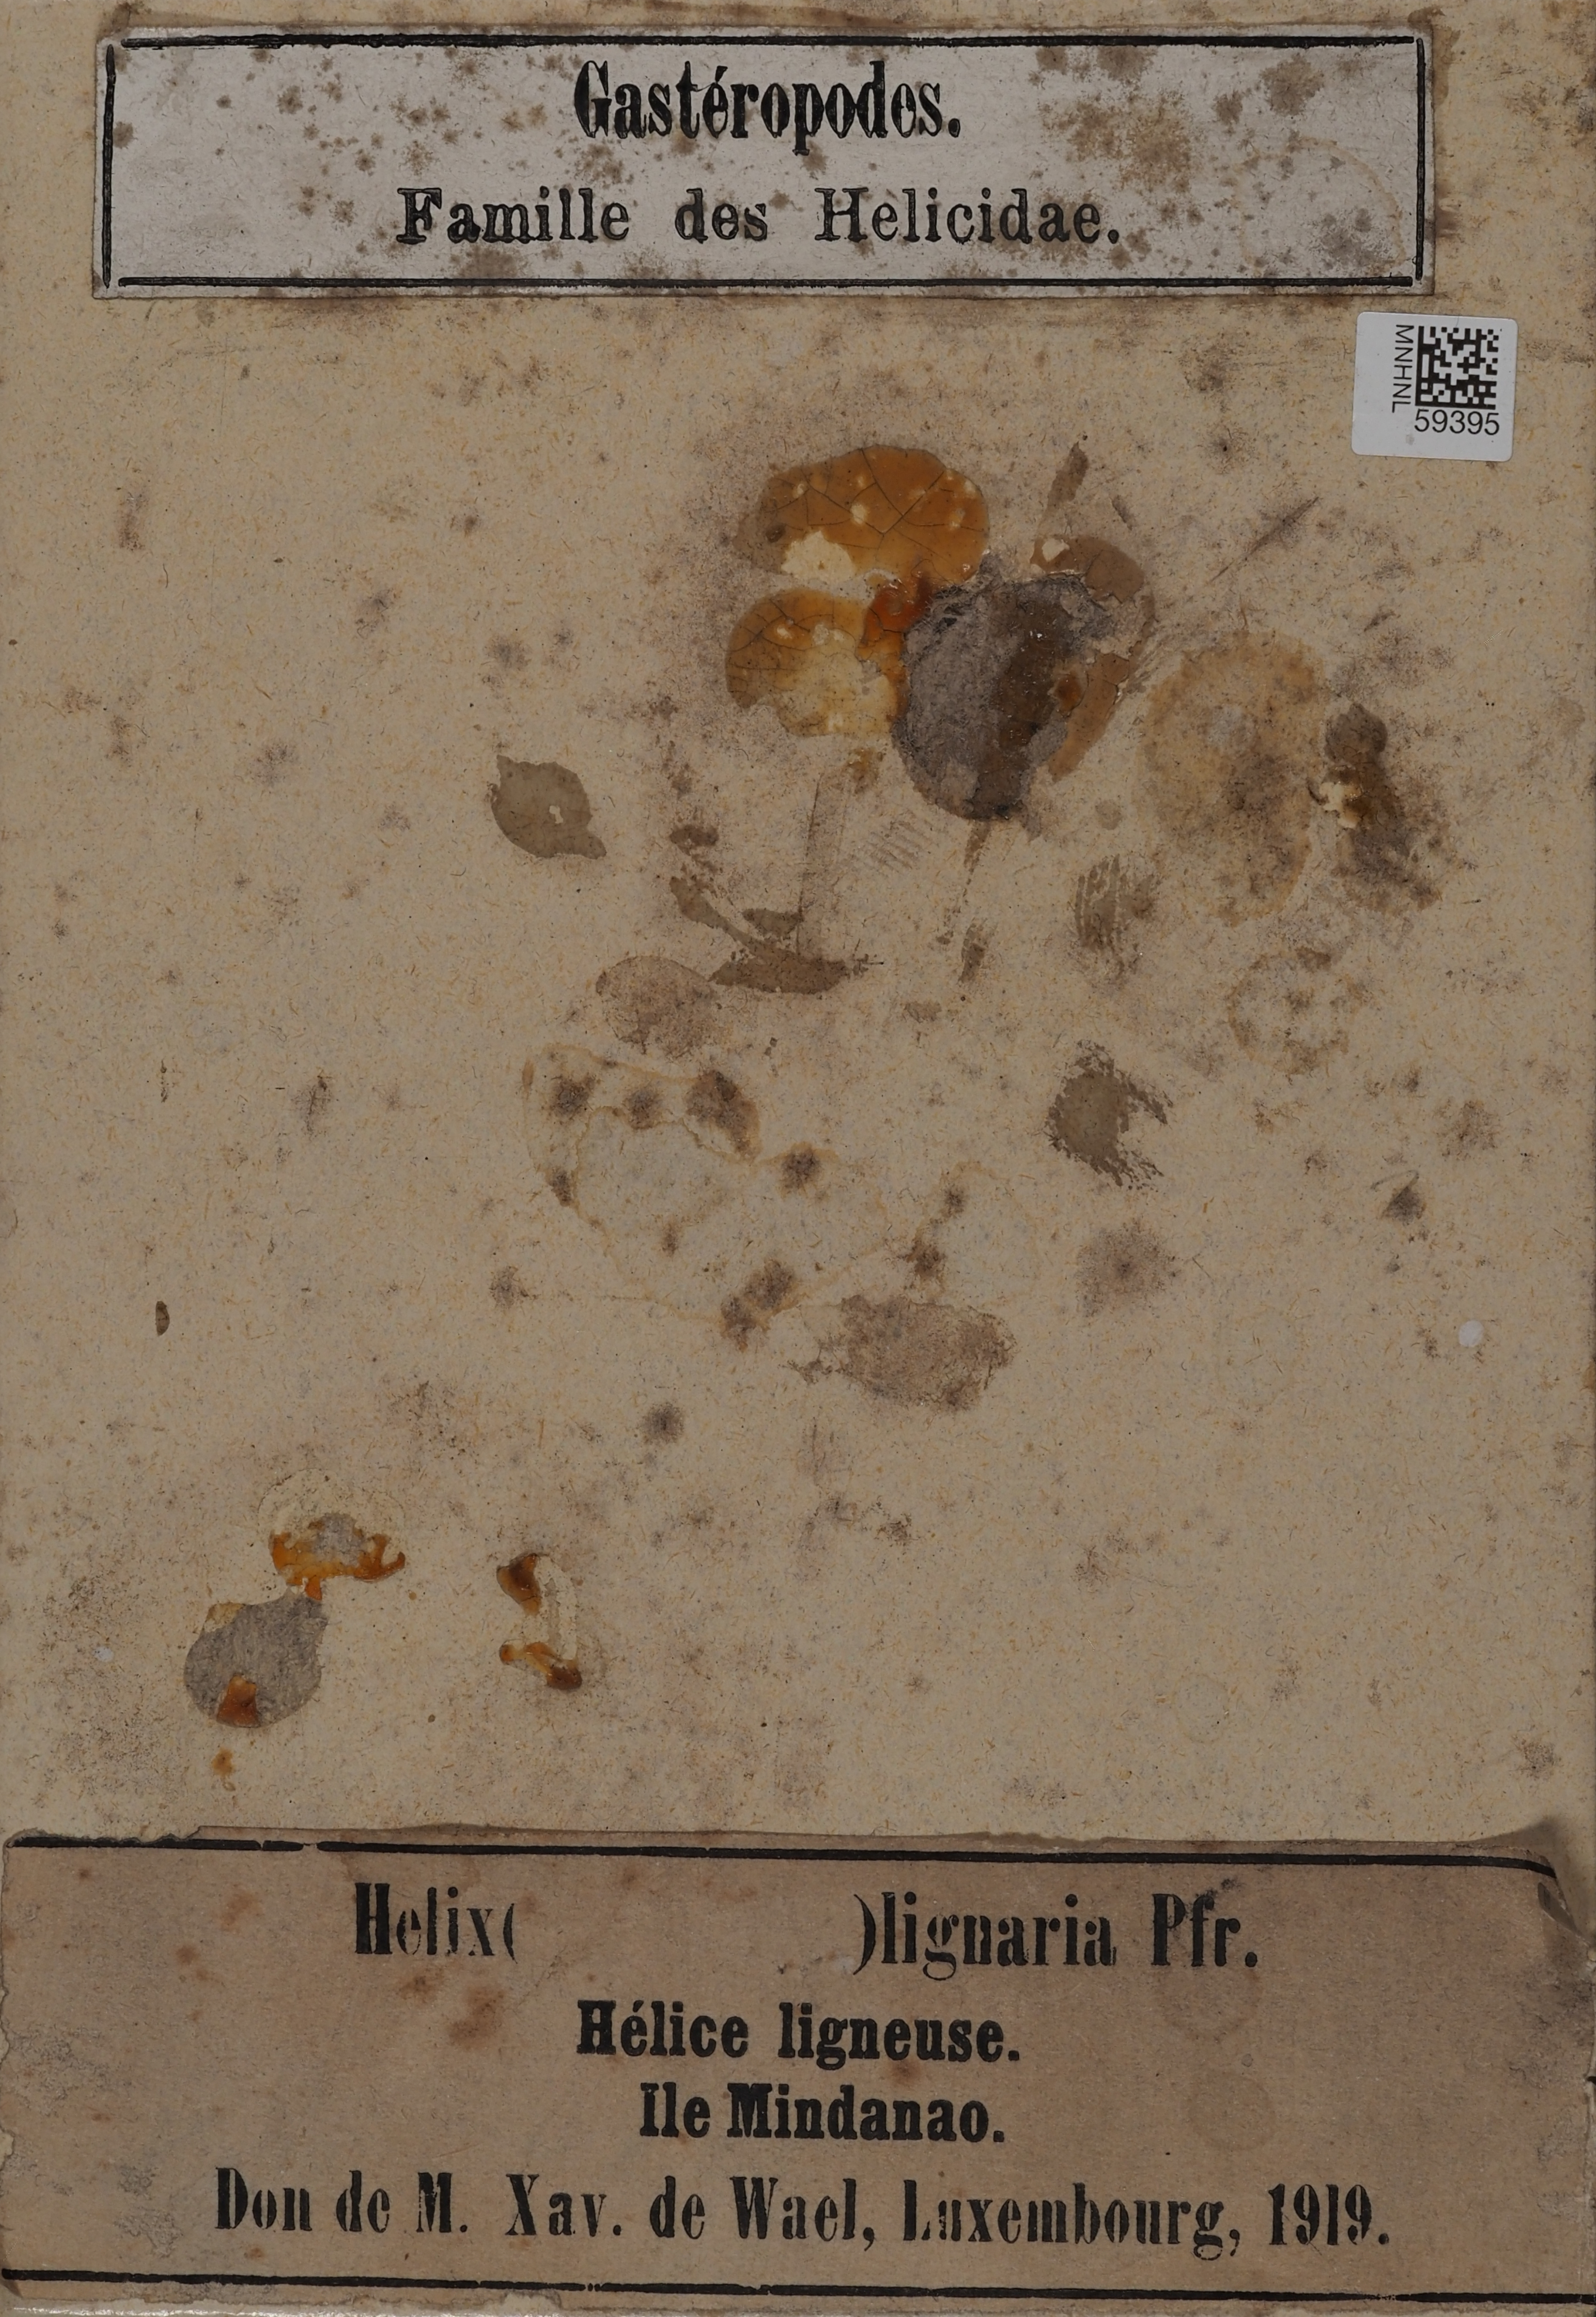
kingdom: Animalia
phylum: Mollusca
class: Gastropoda
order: Stylommatophora
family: Camaenidae
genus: Calocochlea
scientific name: Calocochlea lignaria
